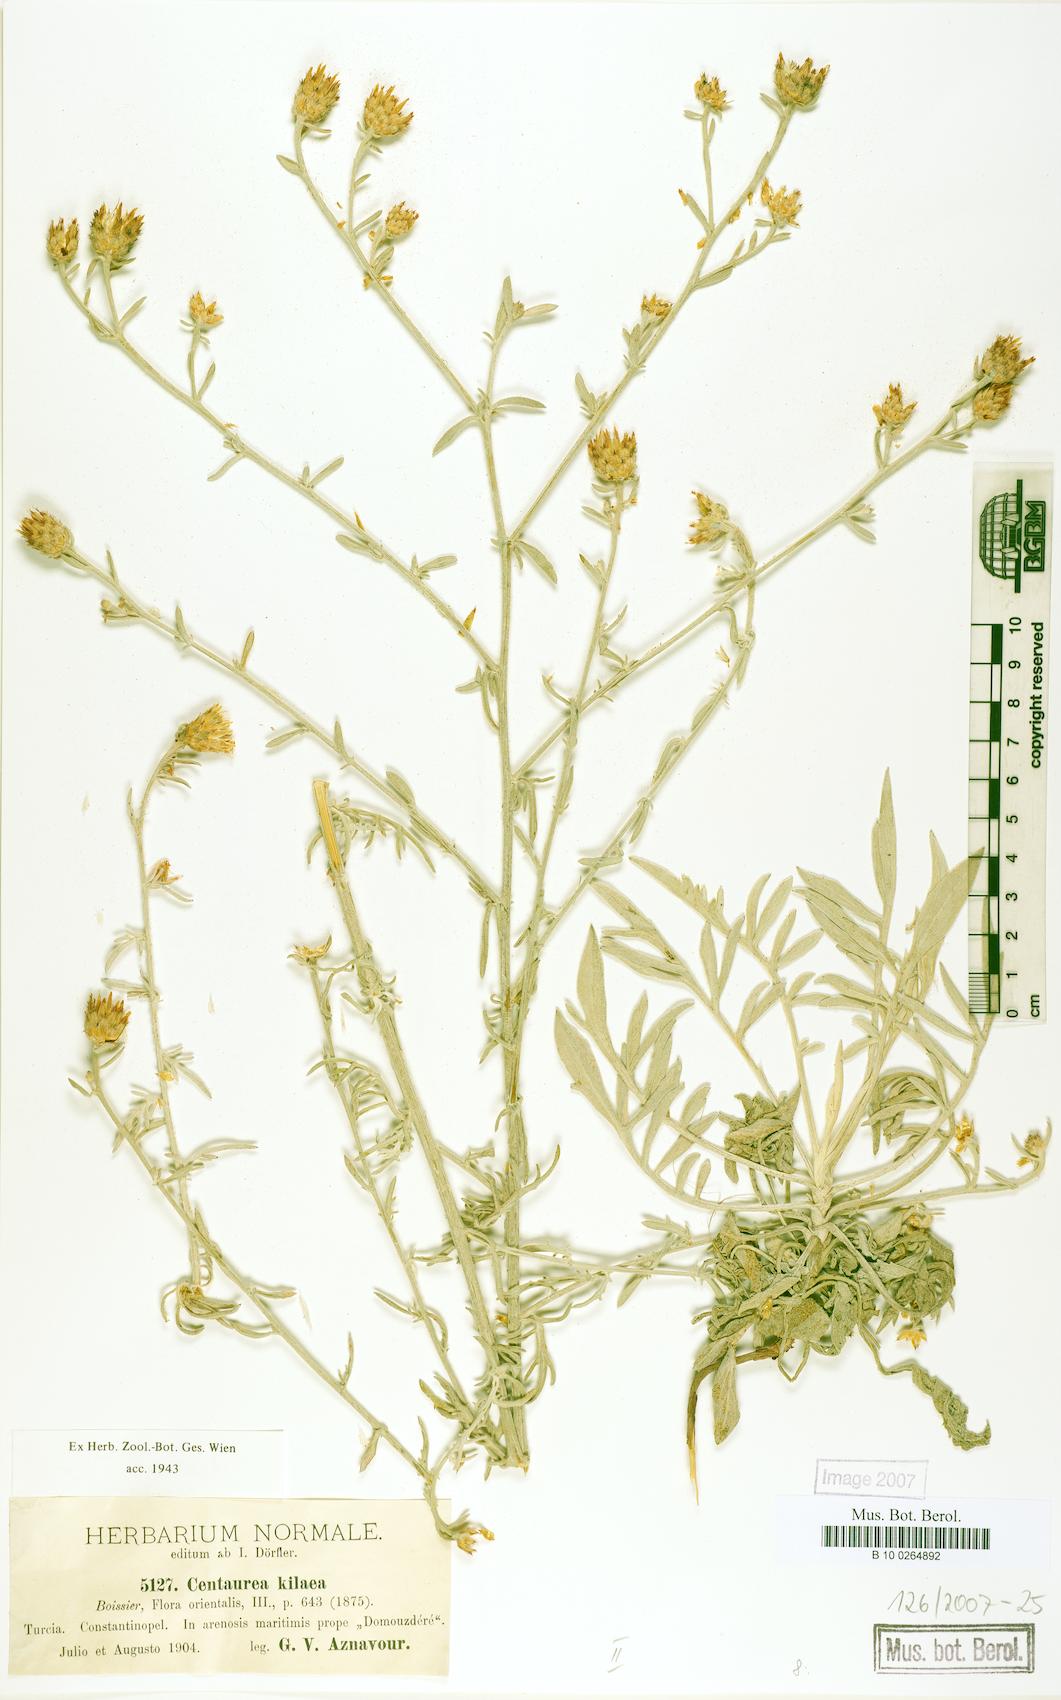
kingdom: Plantae
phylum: Tracheophyta
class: Magnoliopsida
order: Asterales
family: Asteraceae
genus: Centaurea
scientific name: Centaurea kilaea
